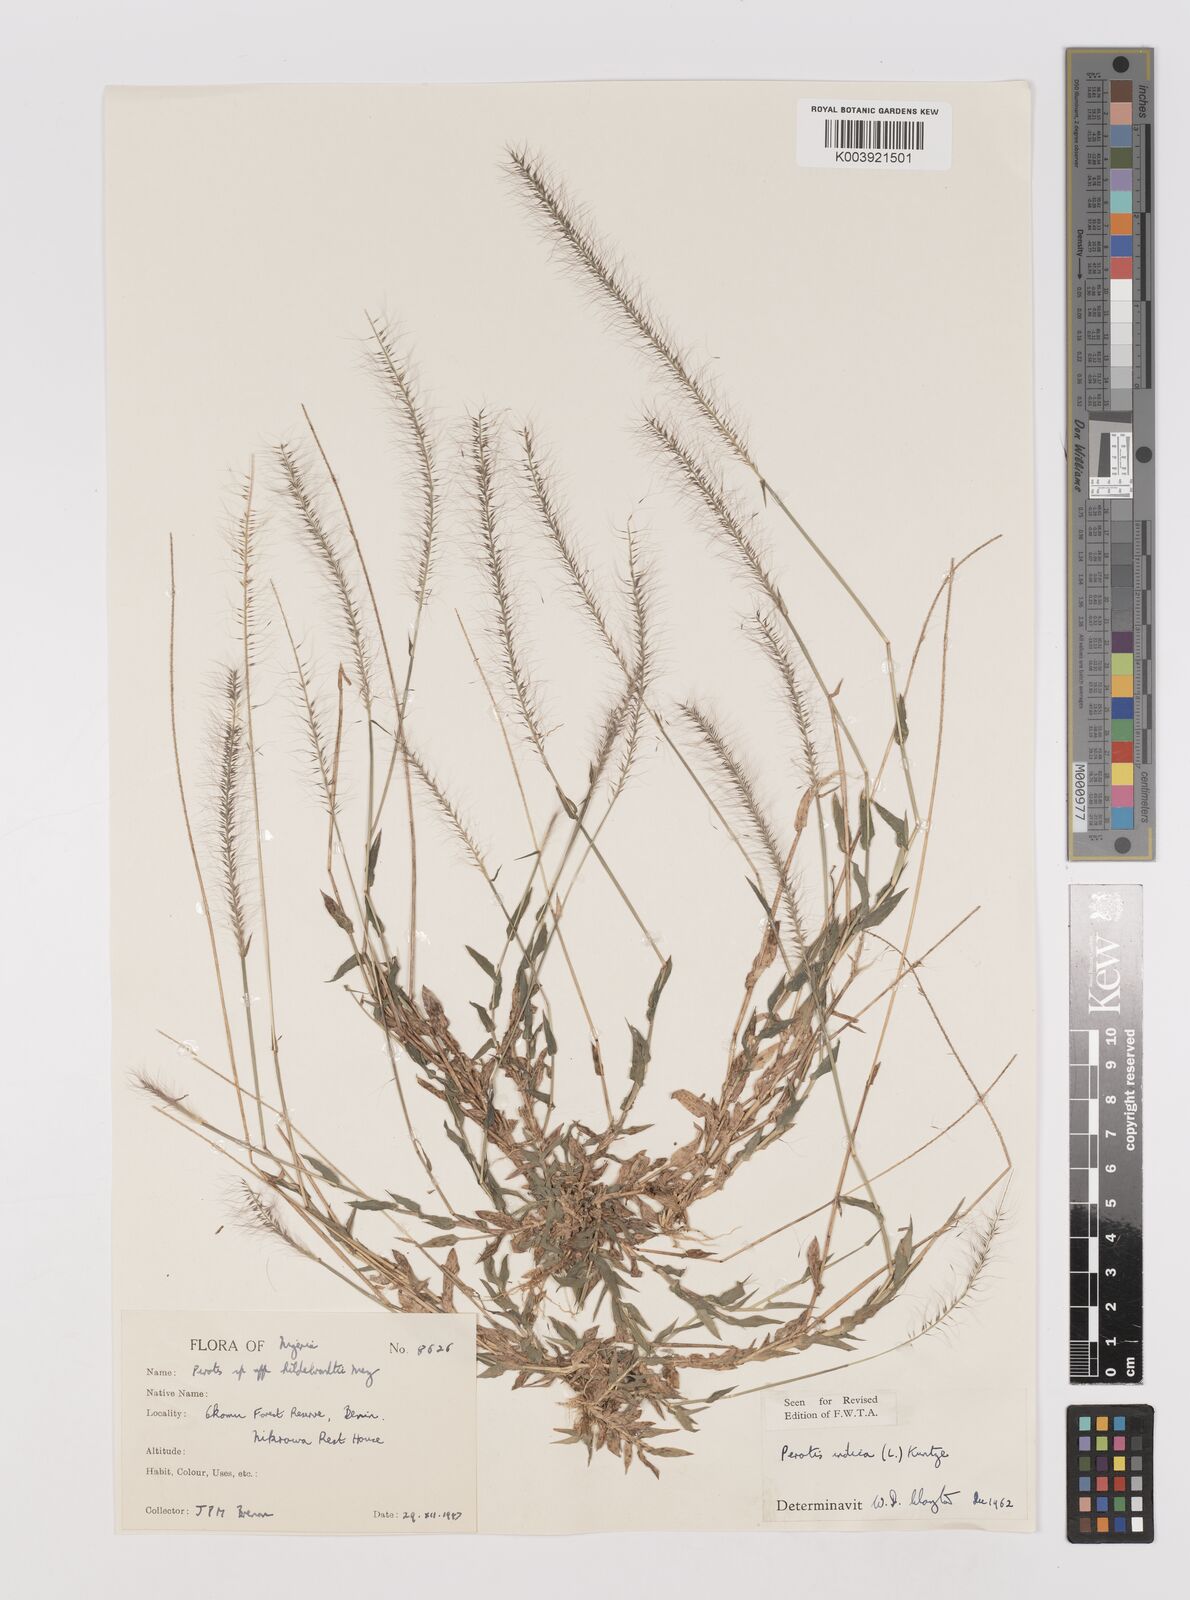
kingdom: Plantae
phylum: Tracheophyta
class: Liliopsida
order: Poales
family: Poaceae
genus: Perotis
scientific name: Perotis indica
